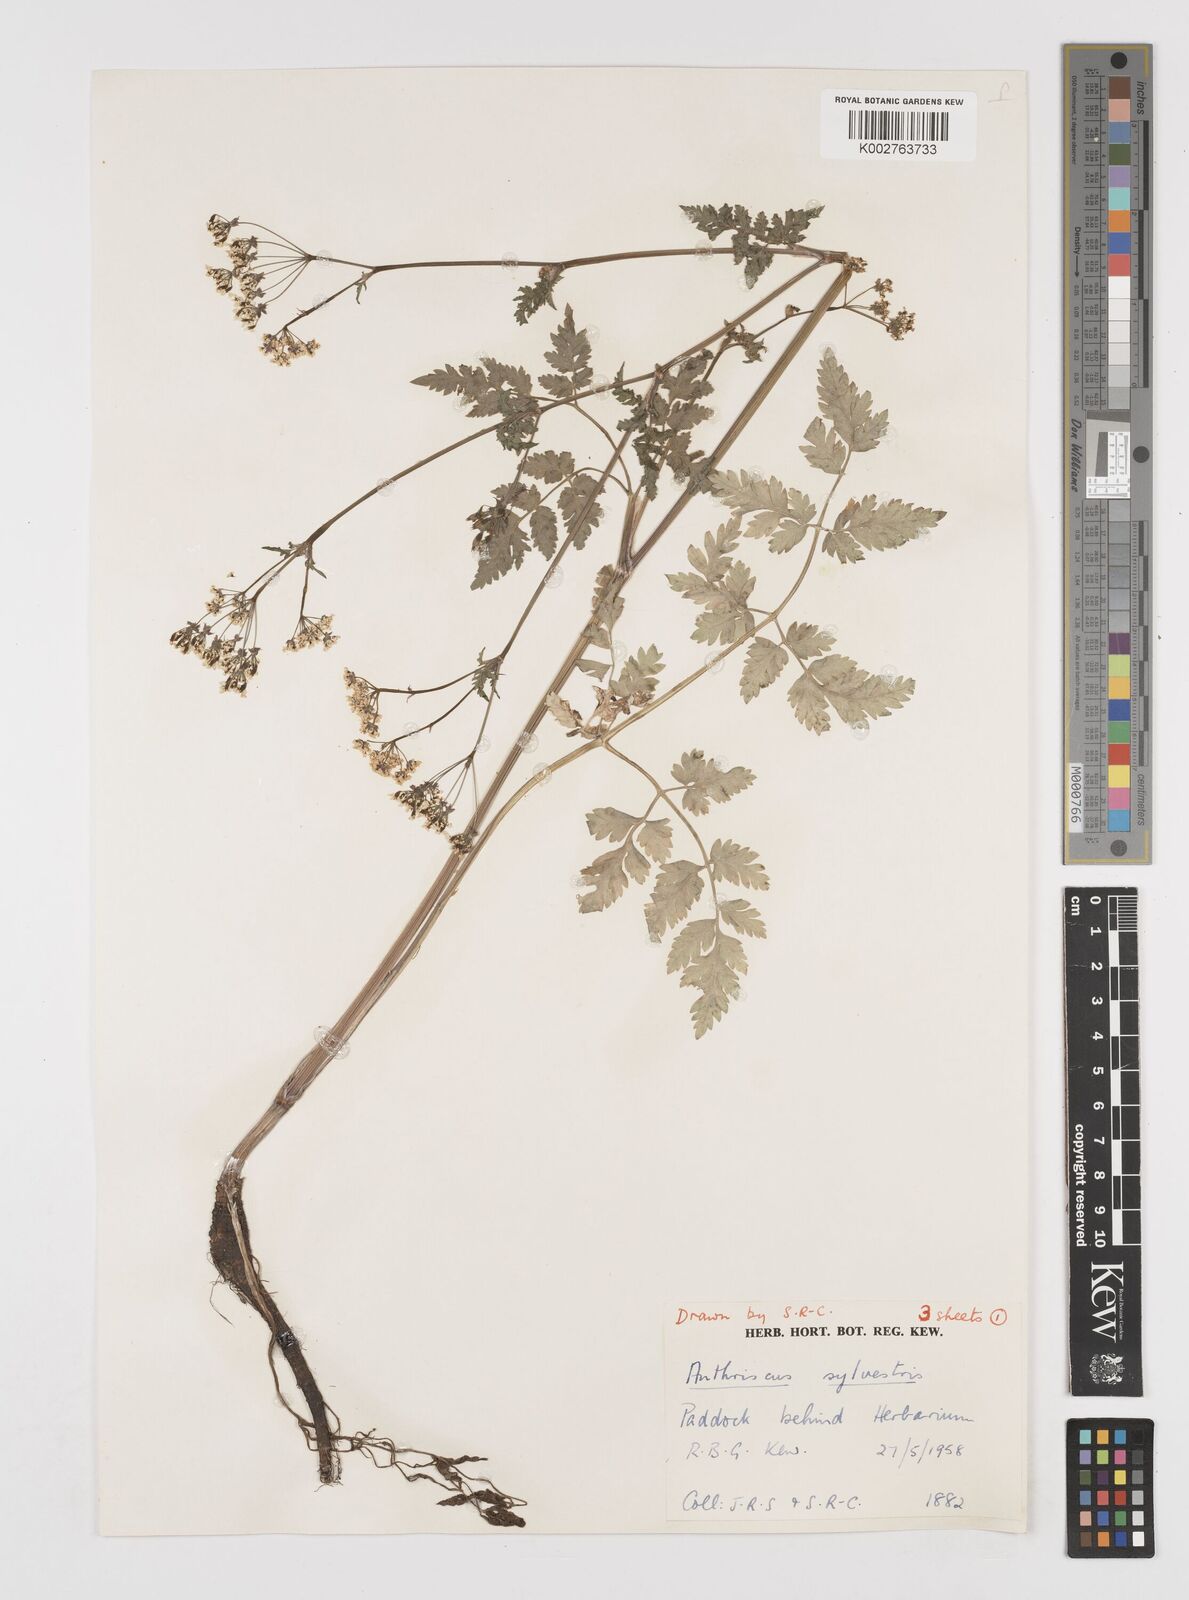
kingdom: Plantae
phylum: Tracheophyta
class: Magnoliopsida
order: Apiales
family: Apiaceae
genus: Anthriscus
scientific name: Anthriscus sylvestris
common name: Cow parsley
